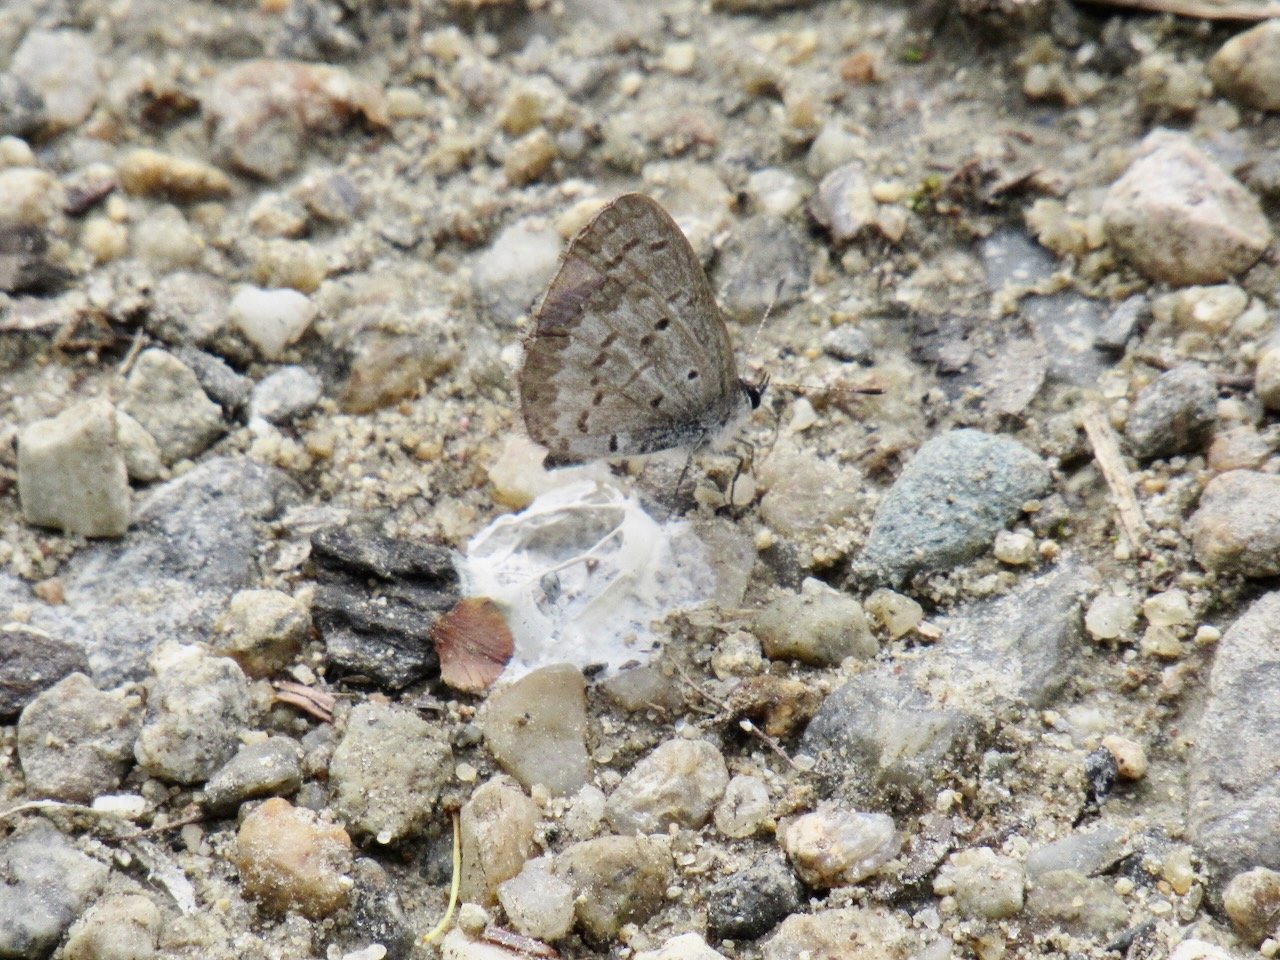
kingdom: Animalia
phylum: Arthropoda
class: Insecta
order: Lepidoptera
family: Lycaenidae
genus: Celastrina
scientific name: Celastrina lucia
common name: Northern Spring Azure
